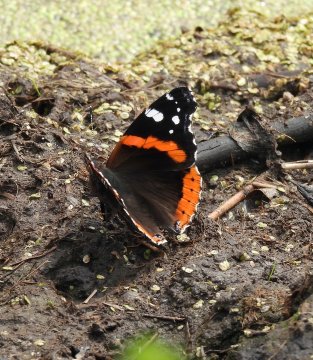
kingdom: Animalia
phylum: Arthropoda
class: Insecta
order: Lepidoptera
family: Nymphalidae
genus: Vanessa
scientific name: Vanessa atalanta
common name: Red Admiral
